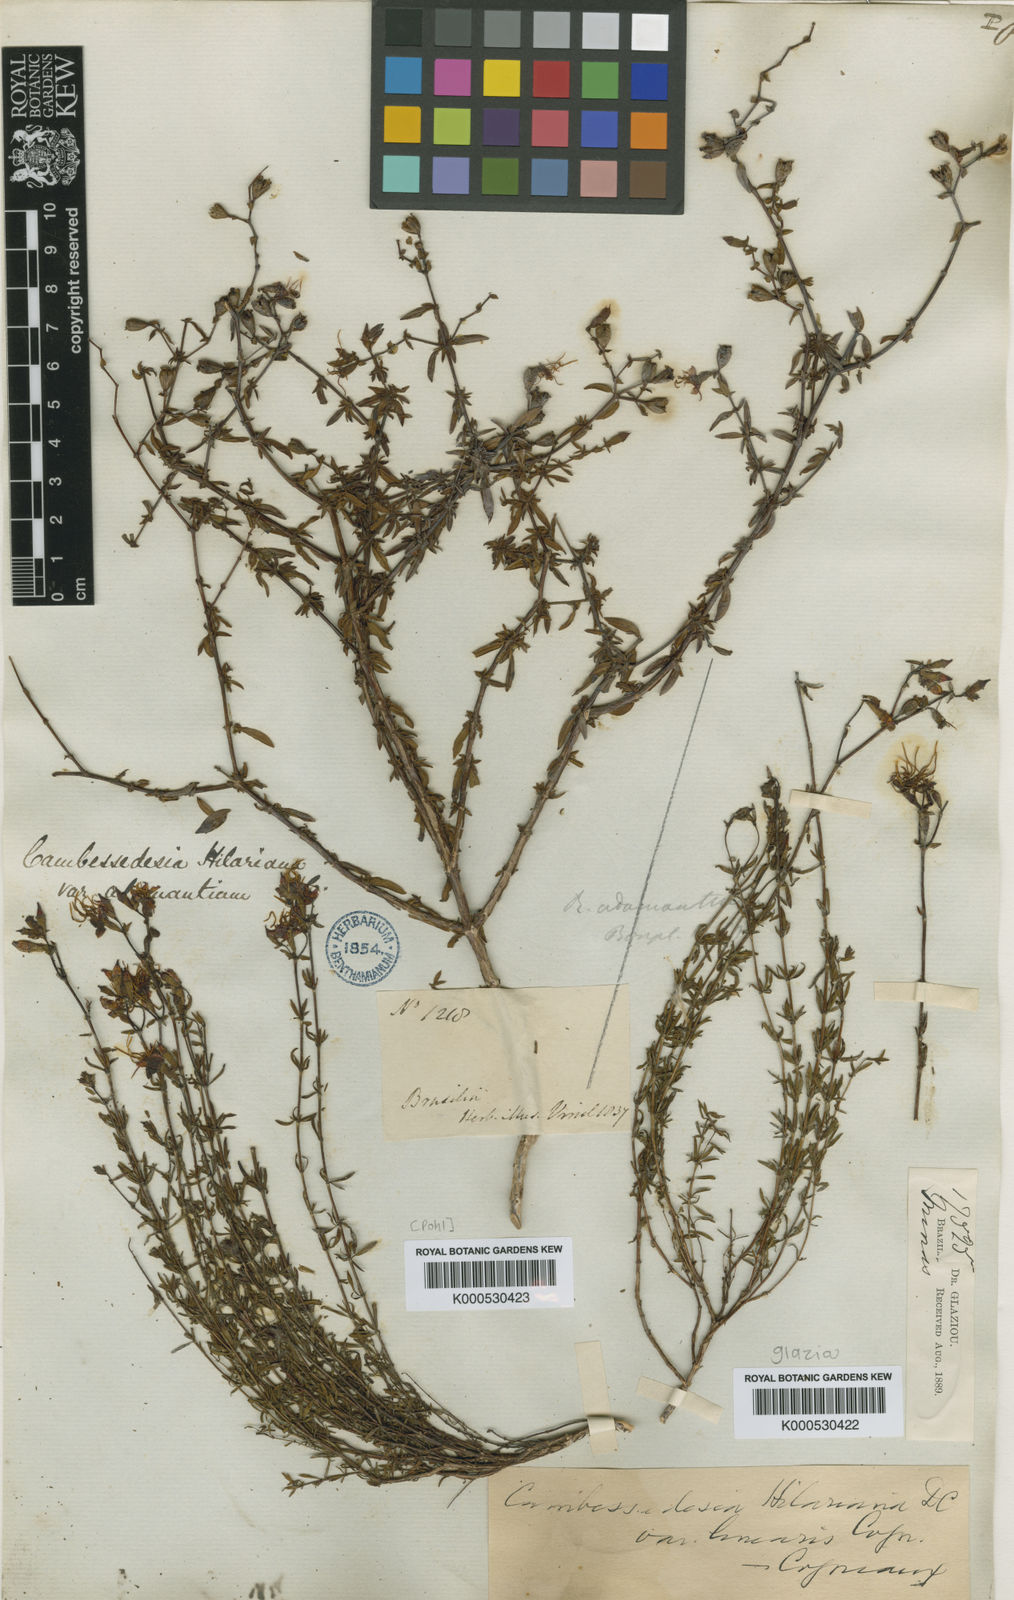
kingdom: Plantae
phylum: Tracheophyta
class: Magnoliopsida
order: Myrtales
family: Melastomataceae
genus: Cambessedesia
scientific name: Cambessedesia hilariana
